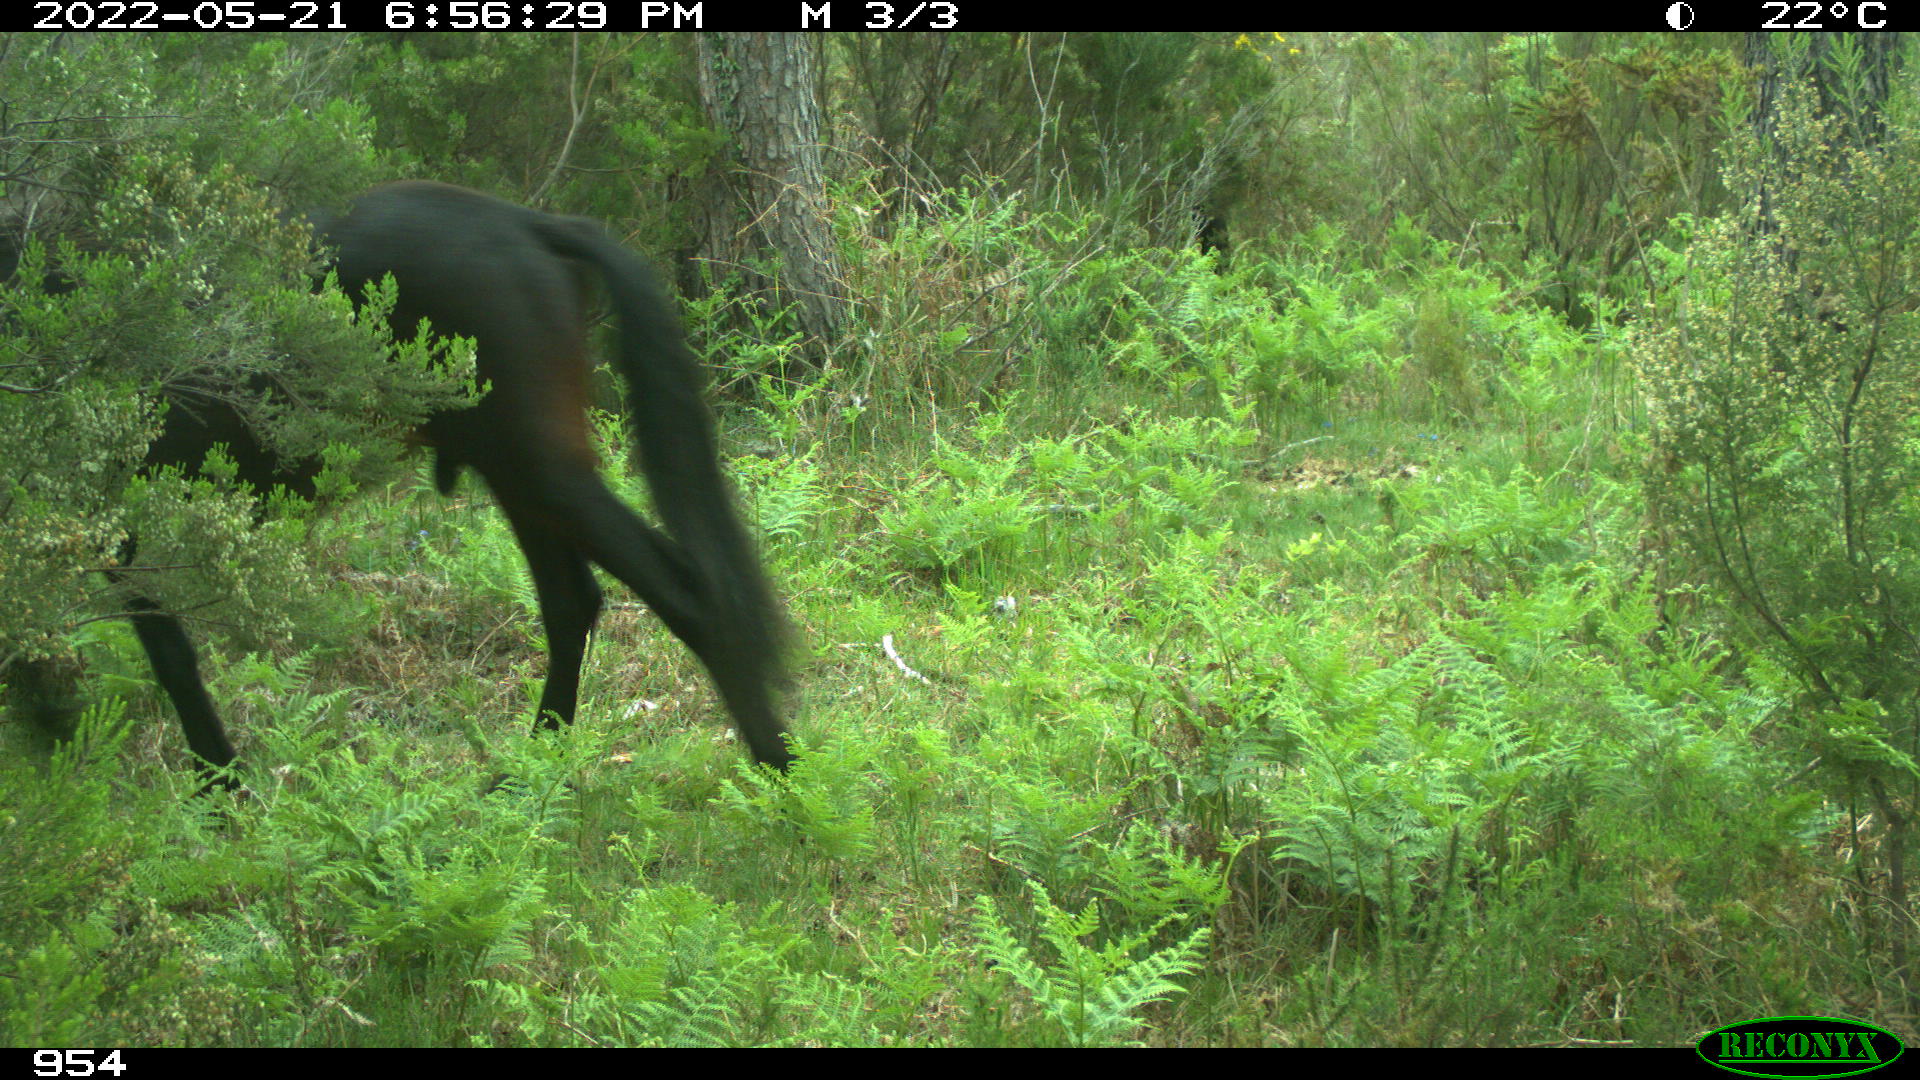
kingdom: Animalia
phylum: Chordata
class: Mammalia
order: Perissodactyla
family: Equidae
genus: Equus
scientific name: Equus caballus
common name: Horse
